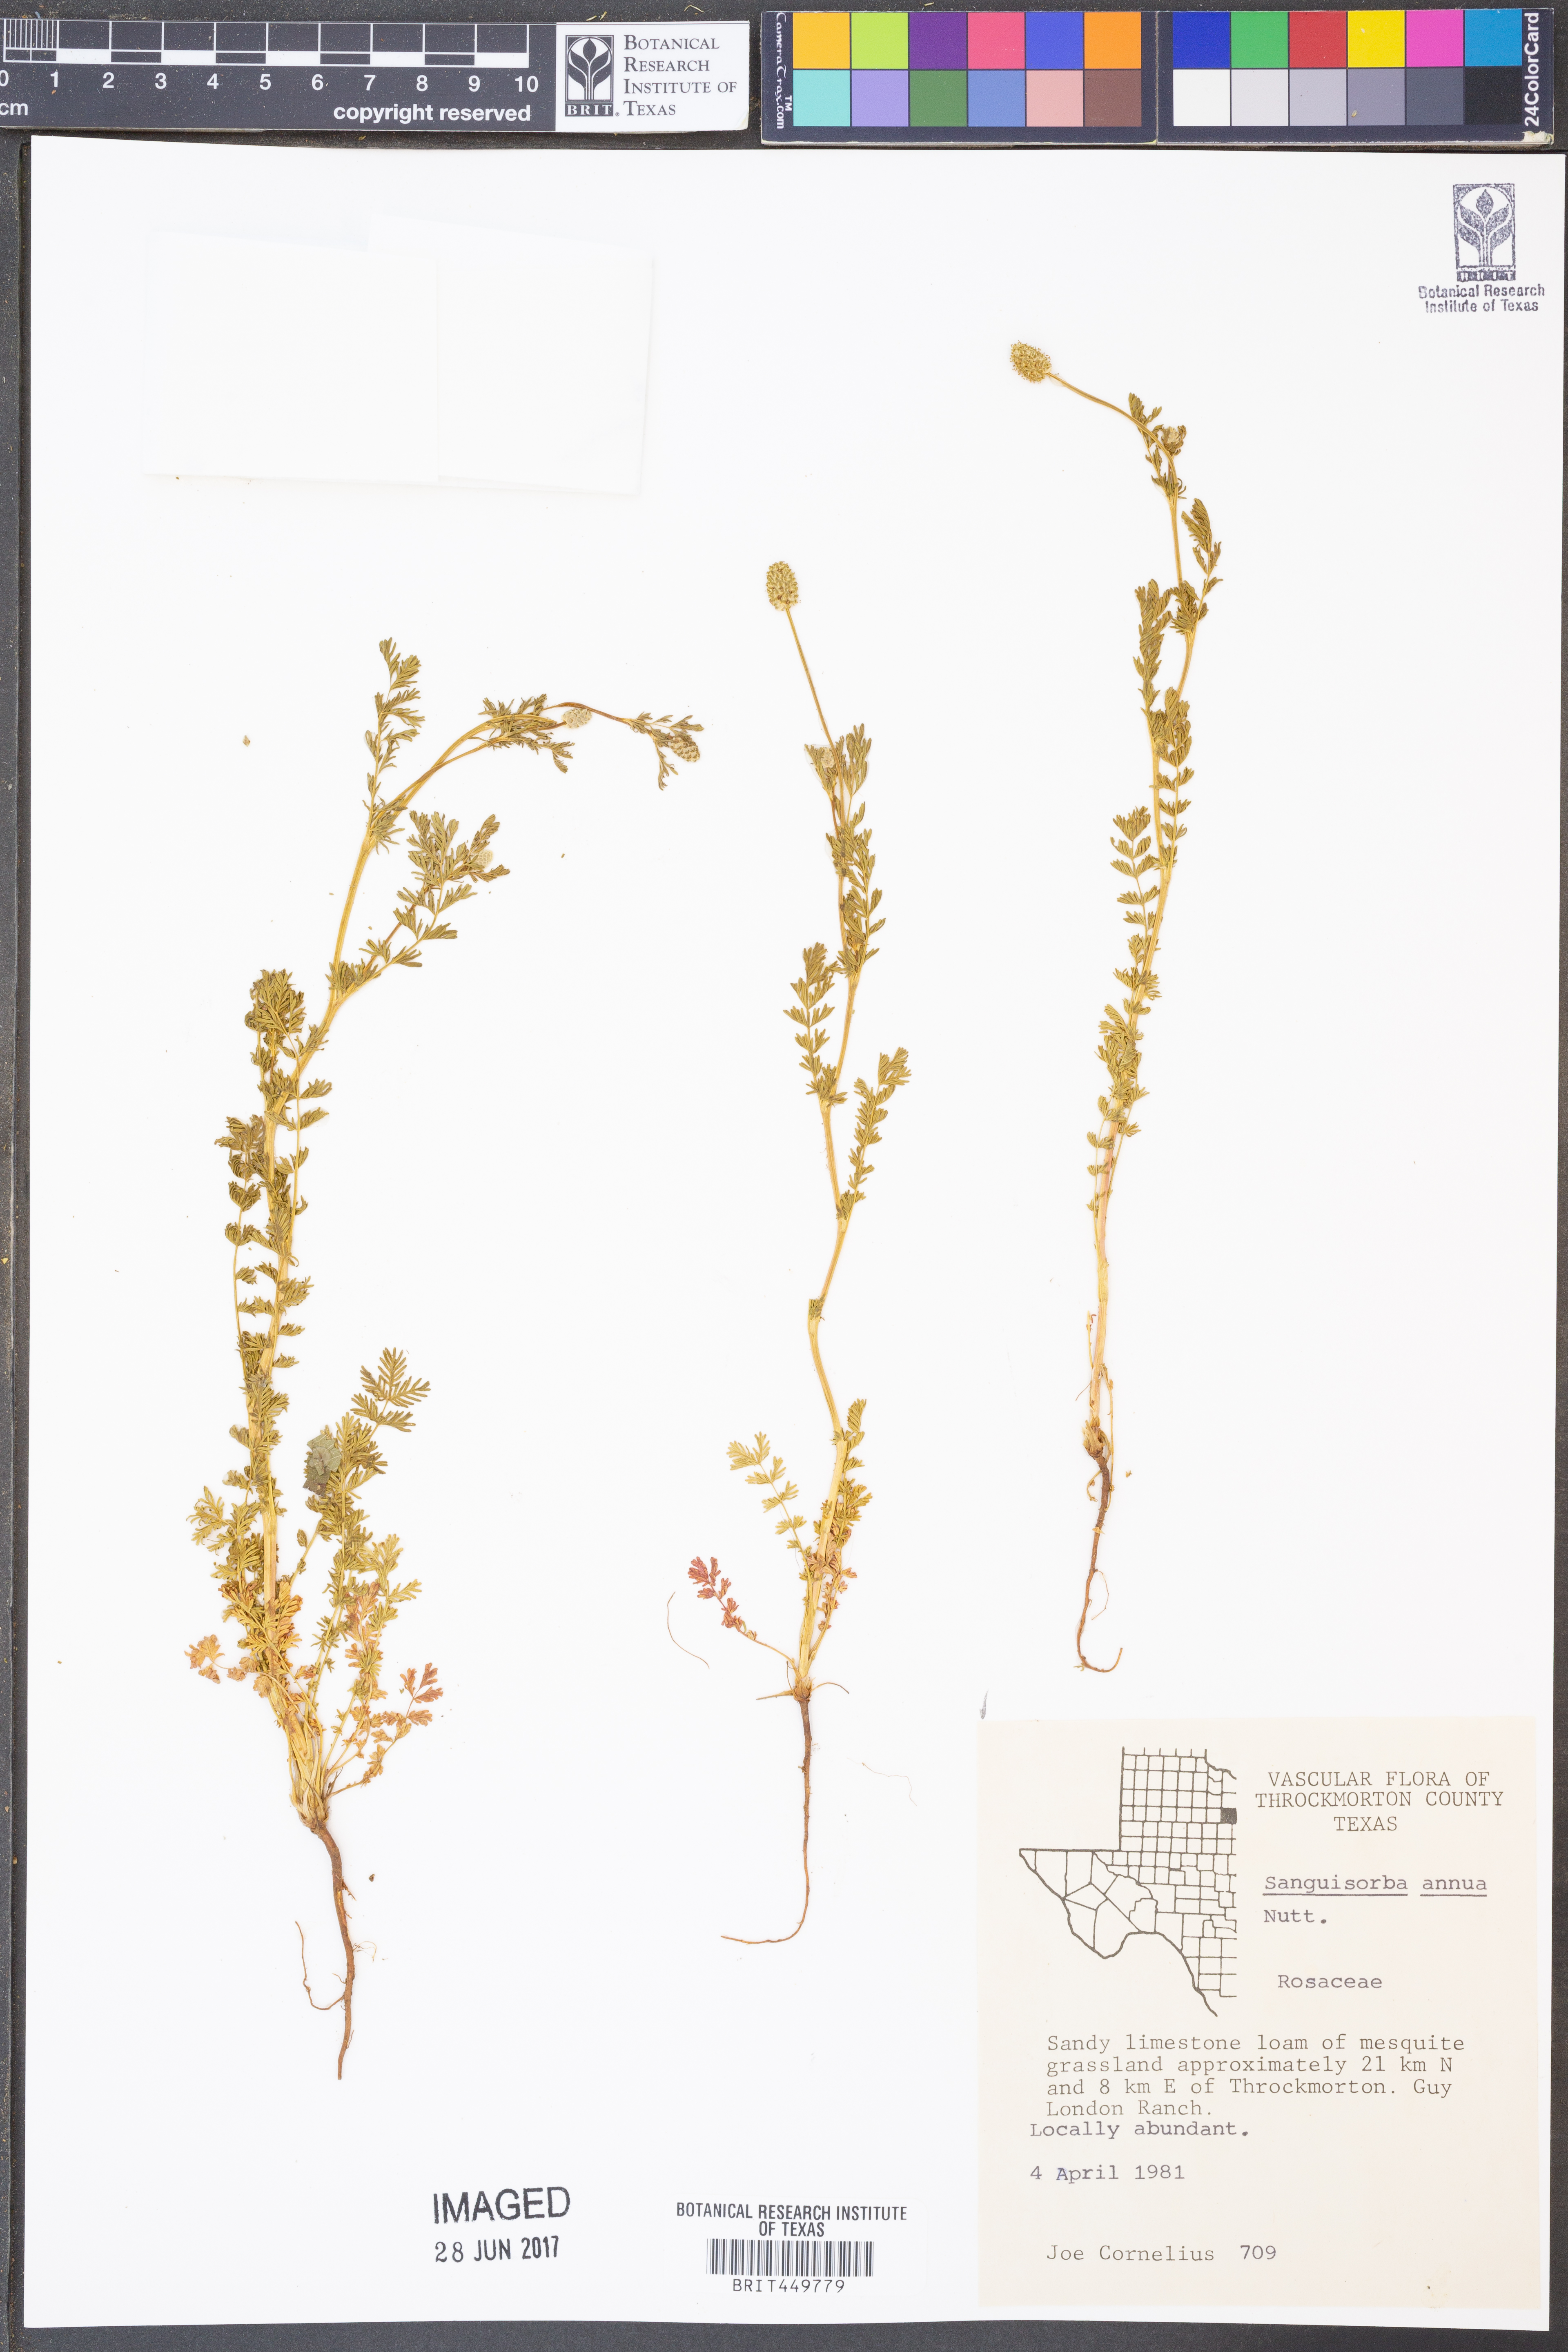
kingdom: Plantae
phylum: Tracheophyta
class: Magnoliopsida
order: Rosales
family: Rosaceae
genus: Poteridium
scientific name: Poteridium annuum
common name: Annual burnet
